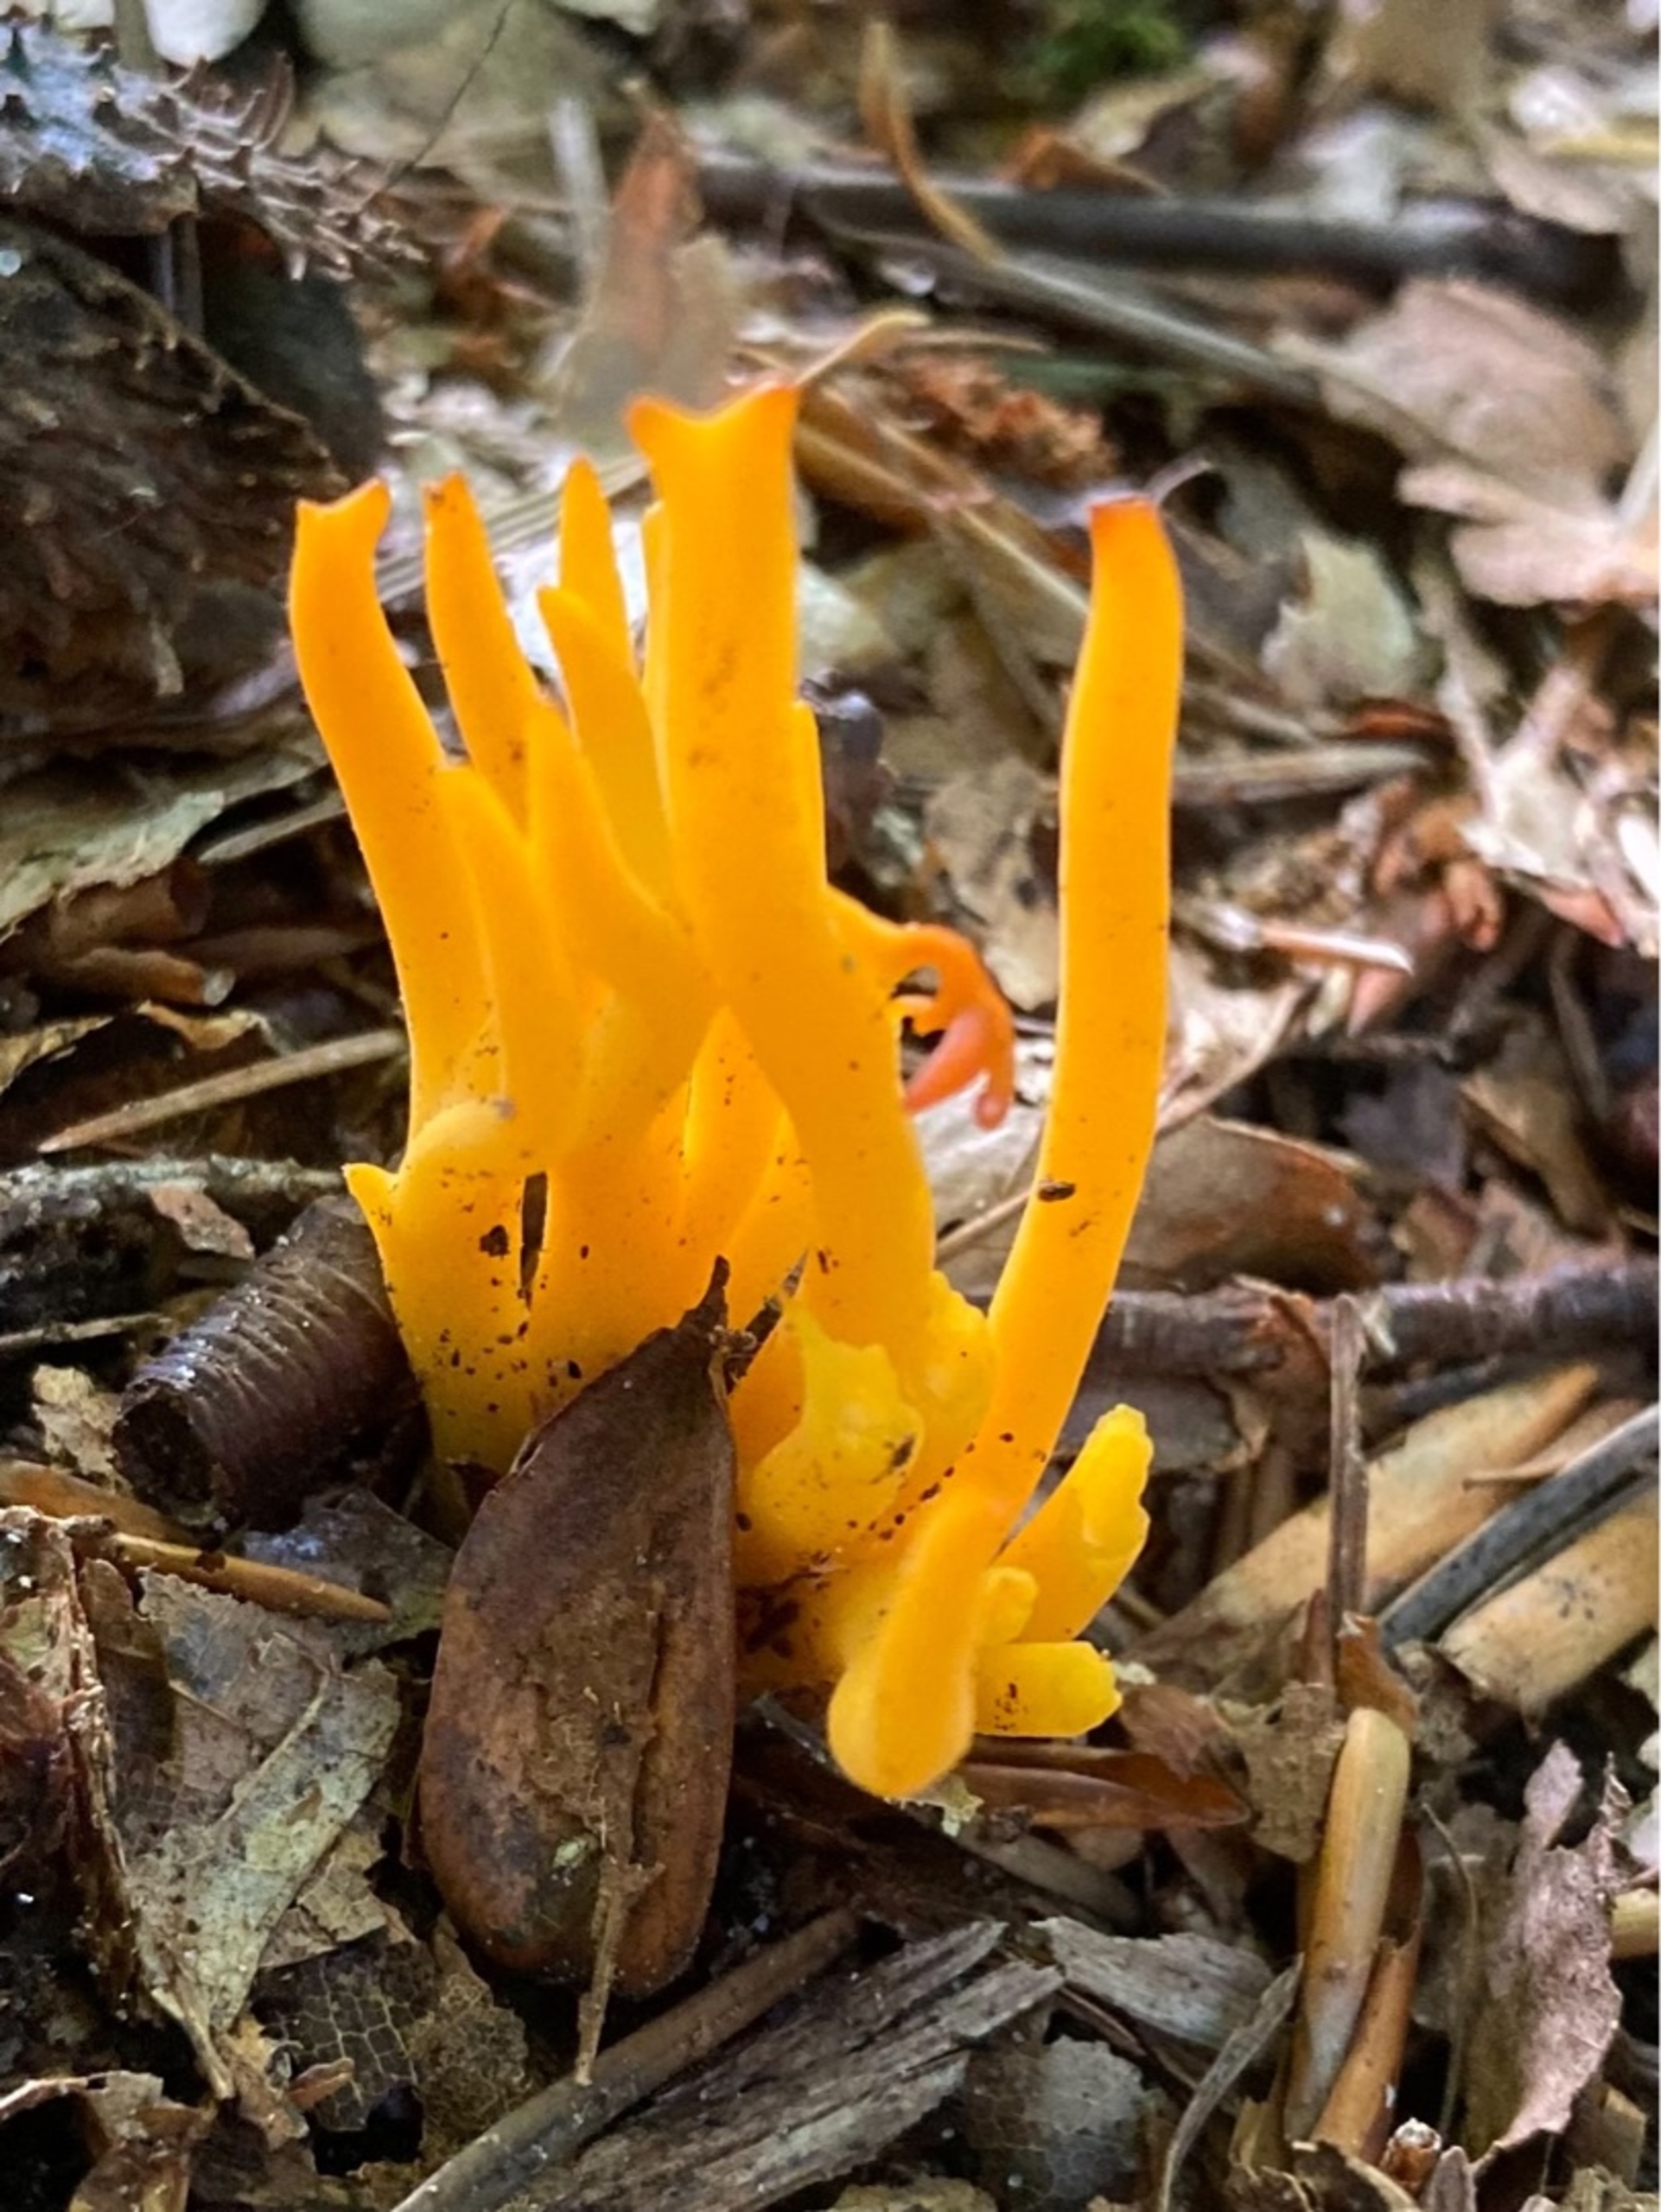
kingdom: Fungi
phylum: Basidiomycota
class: Dacrymycetes
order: Dacrymycetales
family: Dacrymycetaceae
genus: Calocera
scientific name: Calocera viscosa
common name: Almindelig guldgaffel
